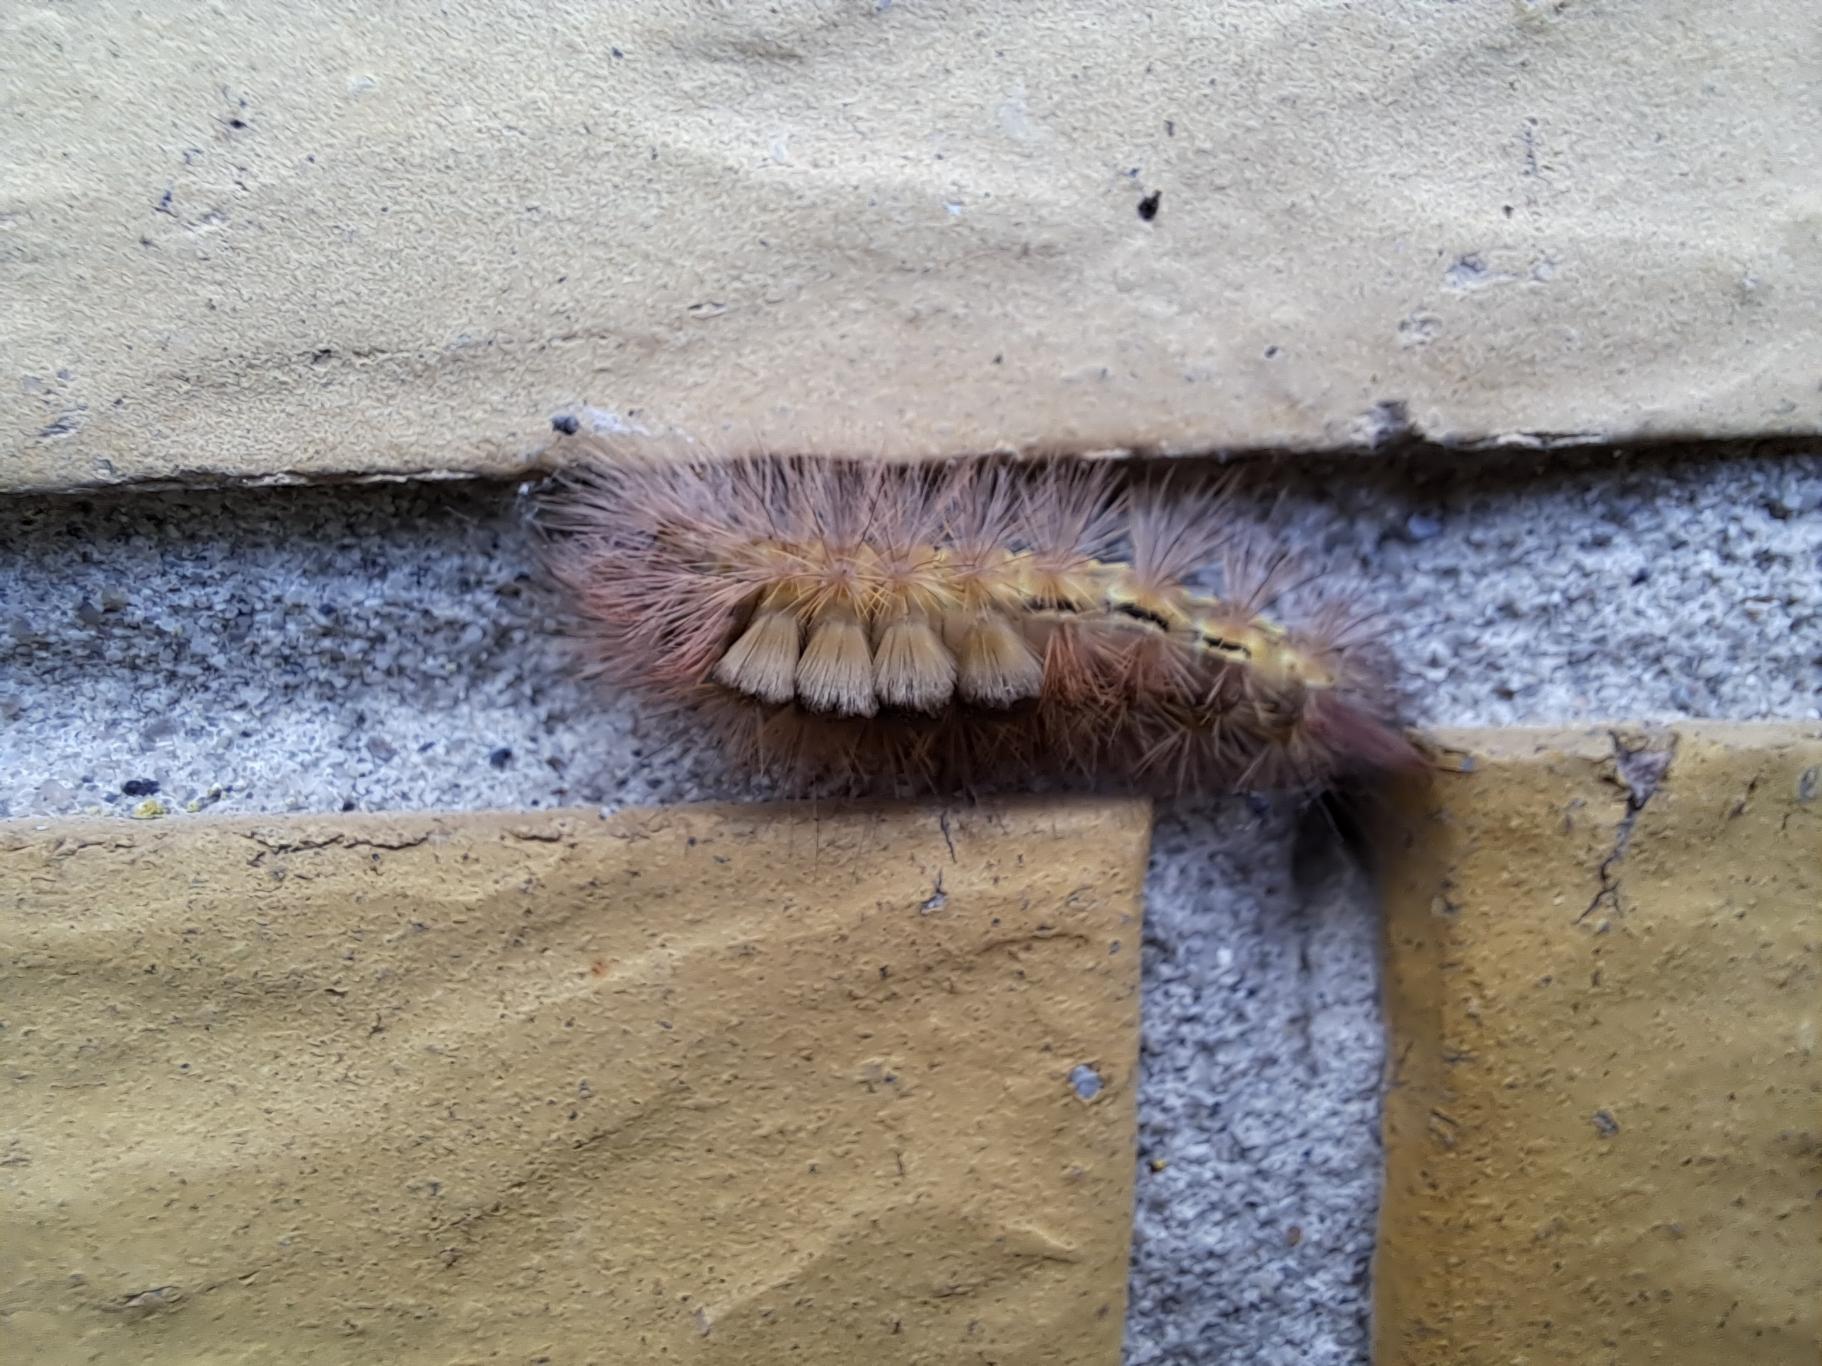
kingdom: Animalia
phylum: Arthropoda
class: Insecta
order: Lepidoptera
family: Erebidae
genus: Calliteara
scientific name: Calliteara pudibunda
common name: Bøgenonne
